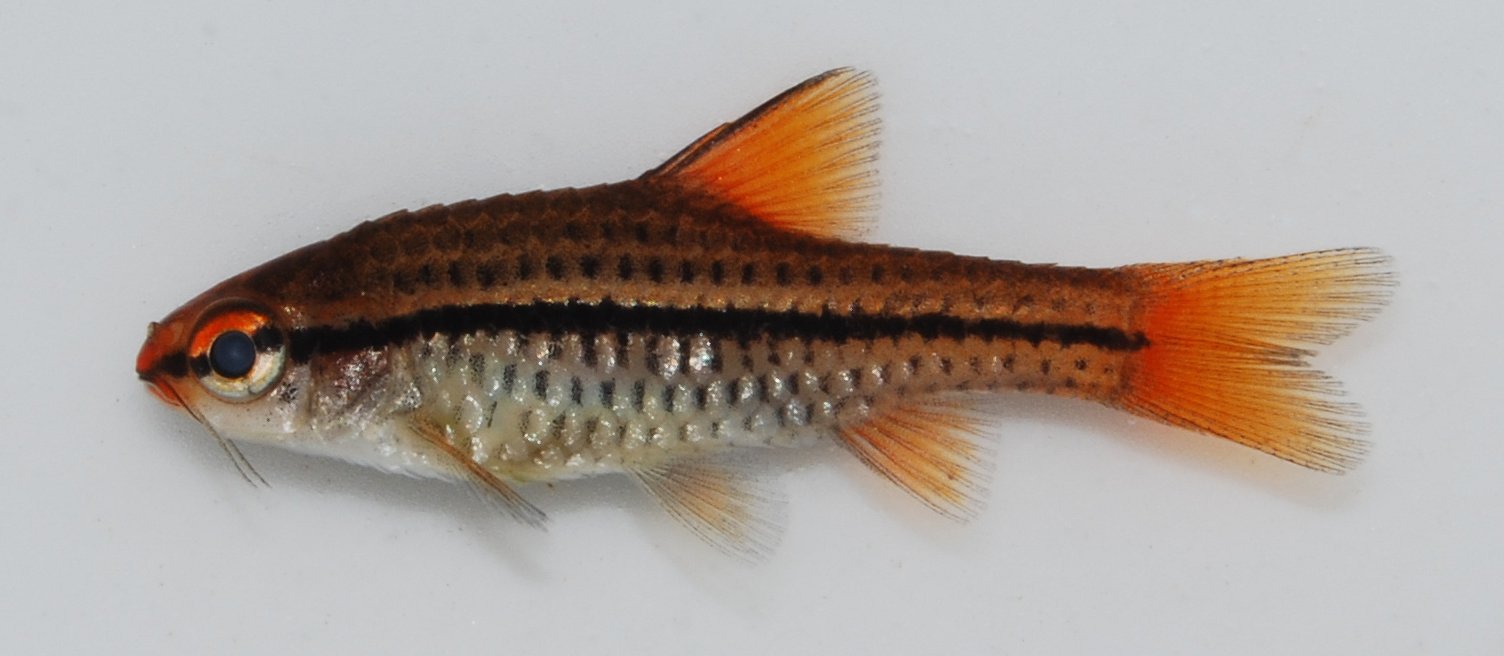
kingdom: Animalia
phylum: Chordata
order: Cypriniformes
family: Cyprinidae
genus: Enteromius
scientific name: Enteromius multilineatus
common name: Copperstripe barb
